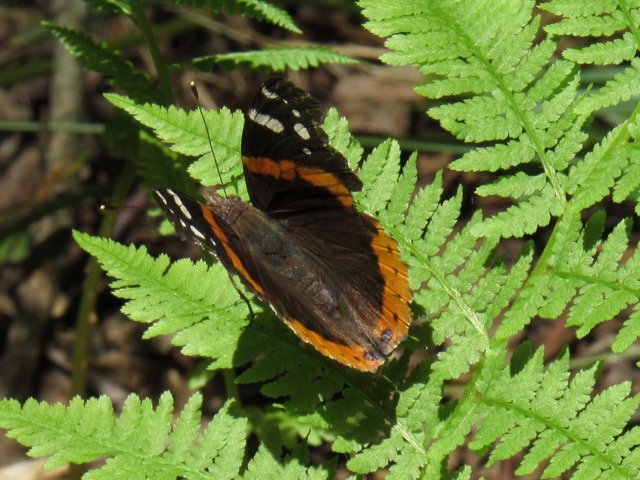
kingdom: Animalia
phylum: Arthropoda
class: Insecta
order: Lepidoptera
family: Nymphalidae
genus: Vanessa
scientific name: Vanessa atalanta
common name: Red Admiral
